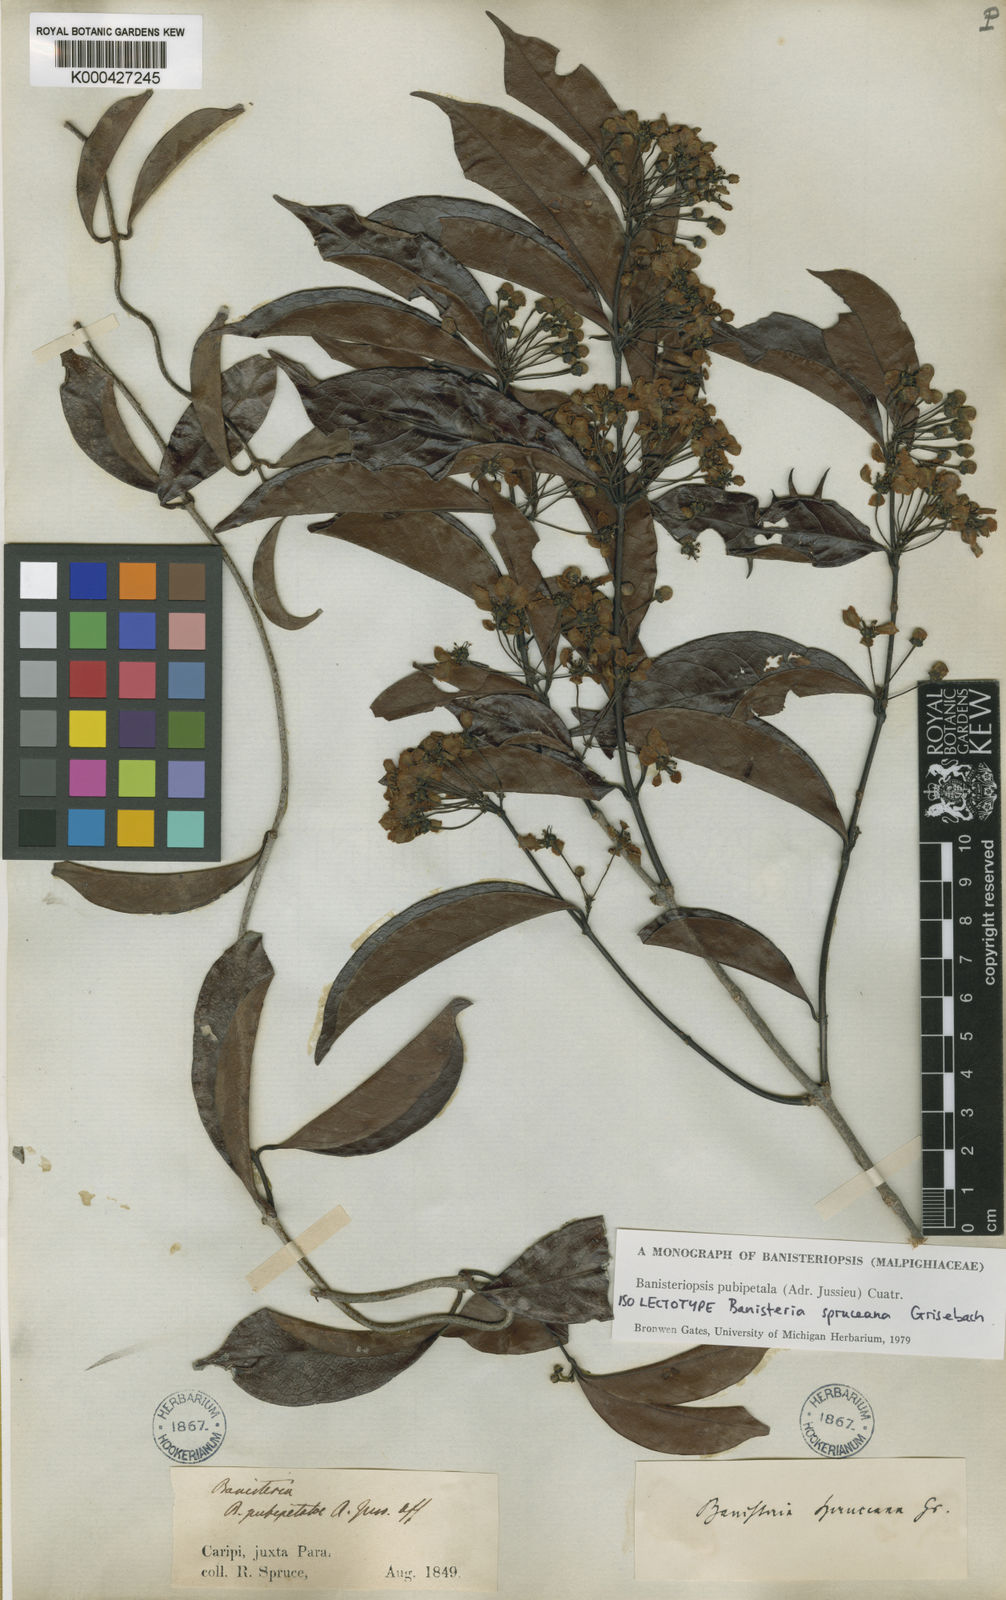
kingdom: Plantae
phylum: Tracheophyta
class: Magnoliopsida
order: Malpighiales
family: Malpighiaceae
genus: Diplopterys
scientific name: Diplopterys pubipetala
